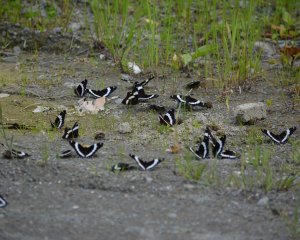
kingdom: Animalia
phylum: Arthropoda
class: Insecta
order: Lepidoptera
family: Nymphalidae
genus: Limenitis
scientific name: Limenitis arthemis
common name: Red-spotted Admiral
